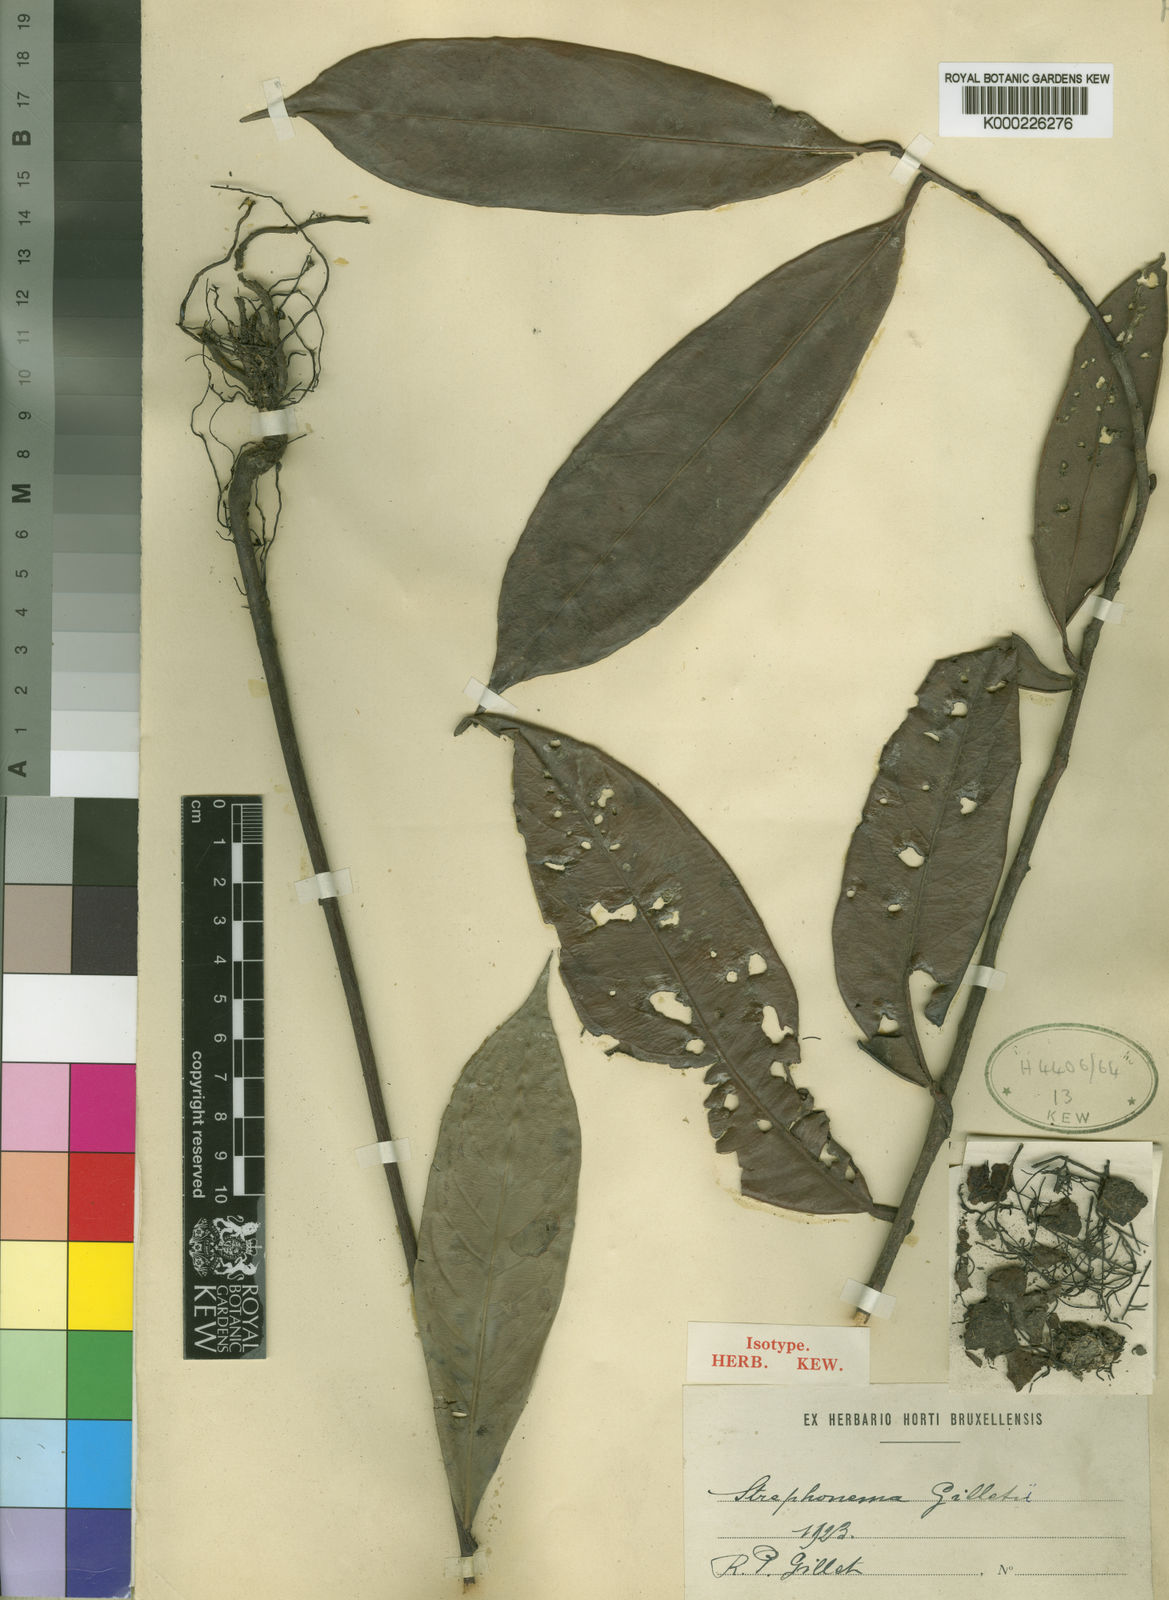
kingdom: Plantae
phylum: Tracheophyta
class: Magnoliopsida
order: Myrtales
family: Combretaceae
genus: Strephonema
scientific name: Strephonema sericeum
